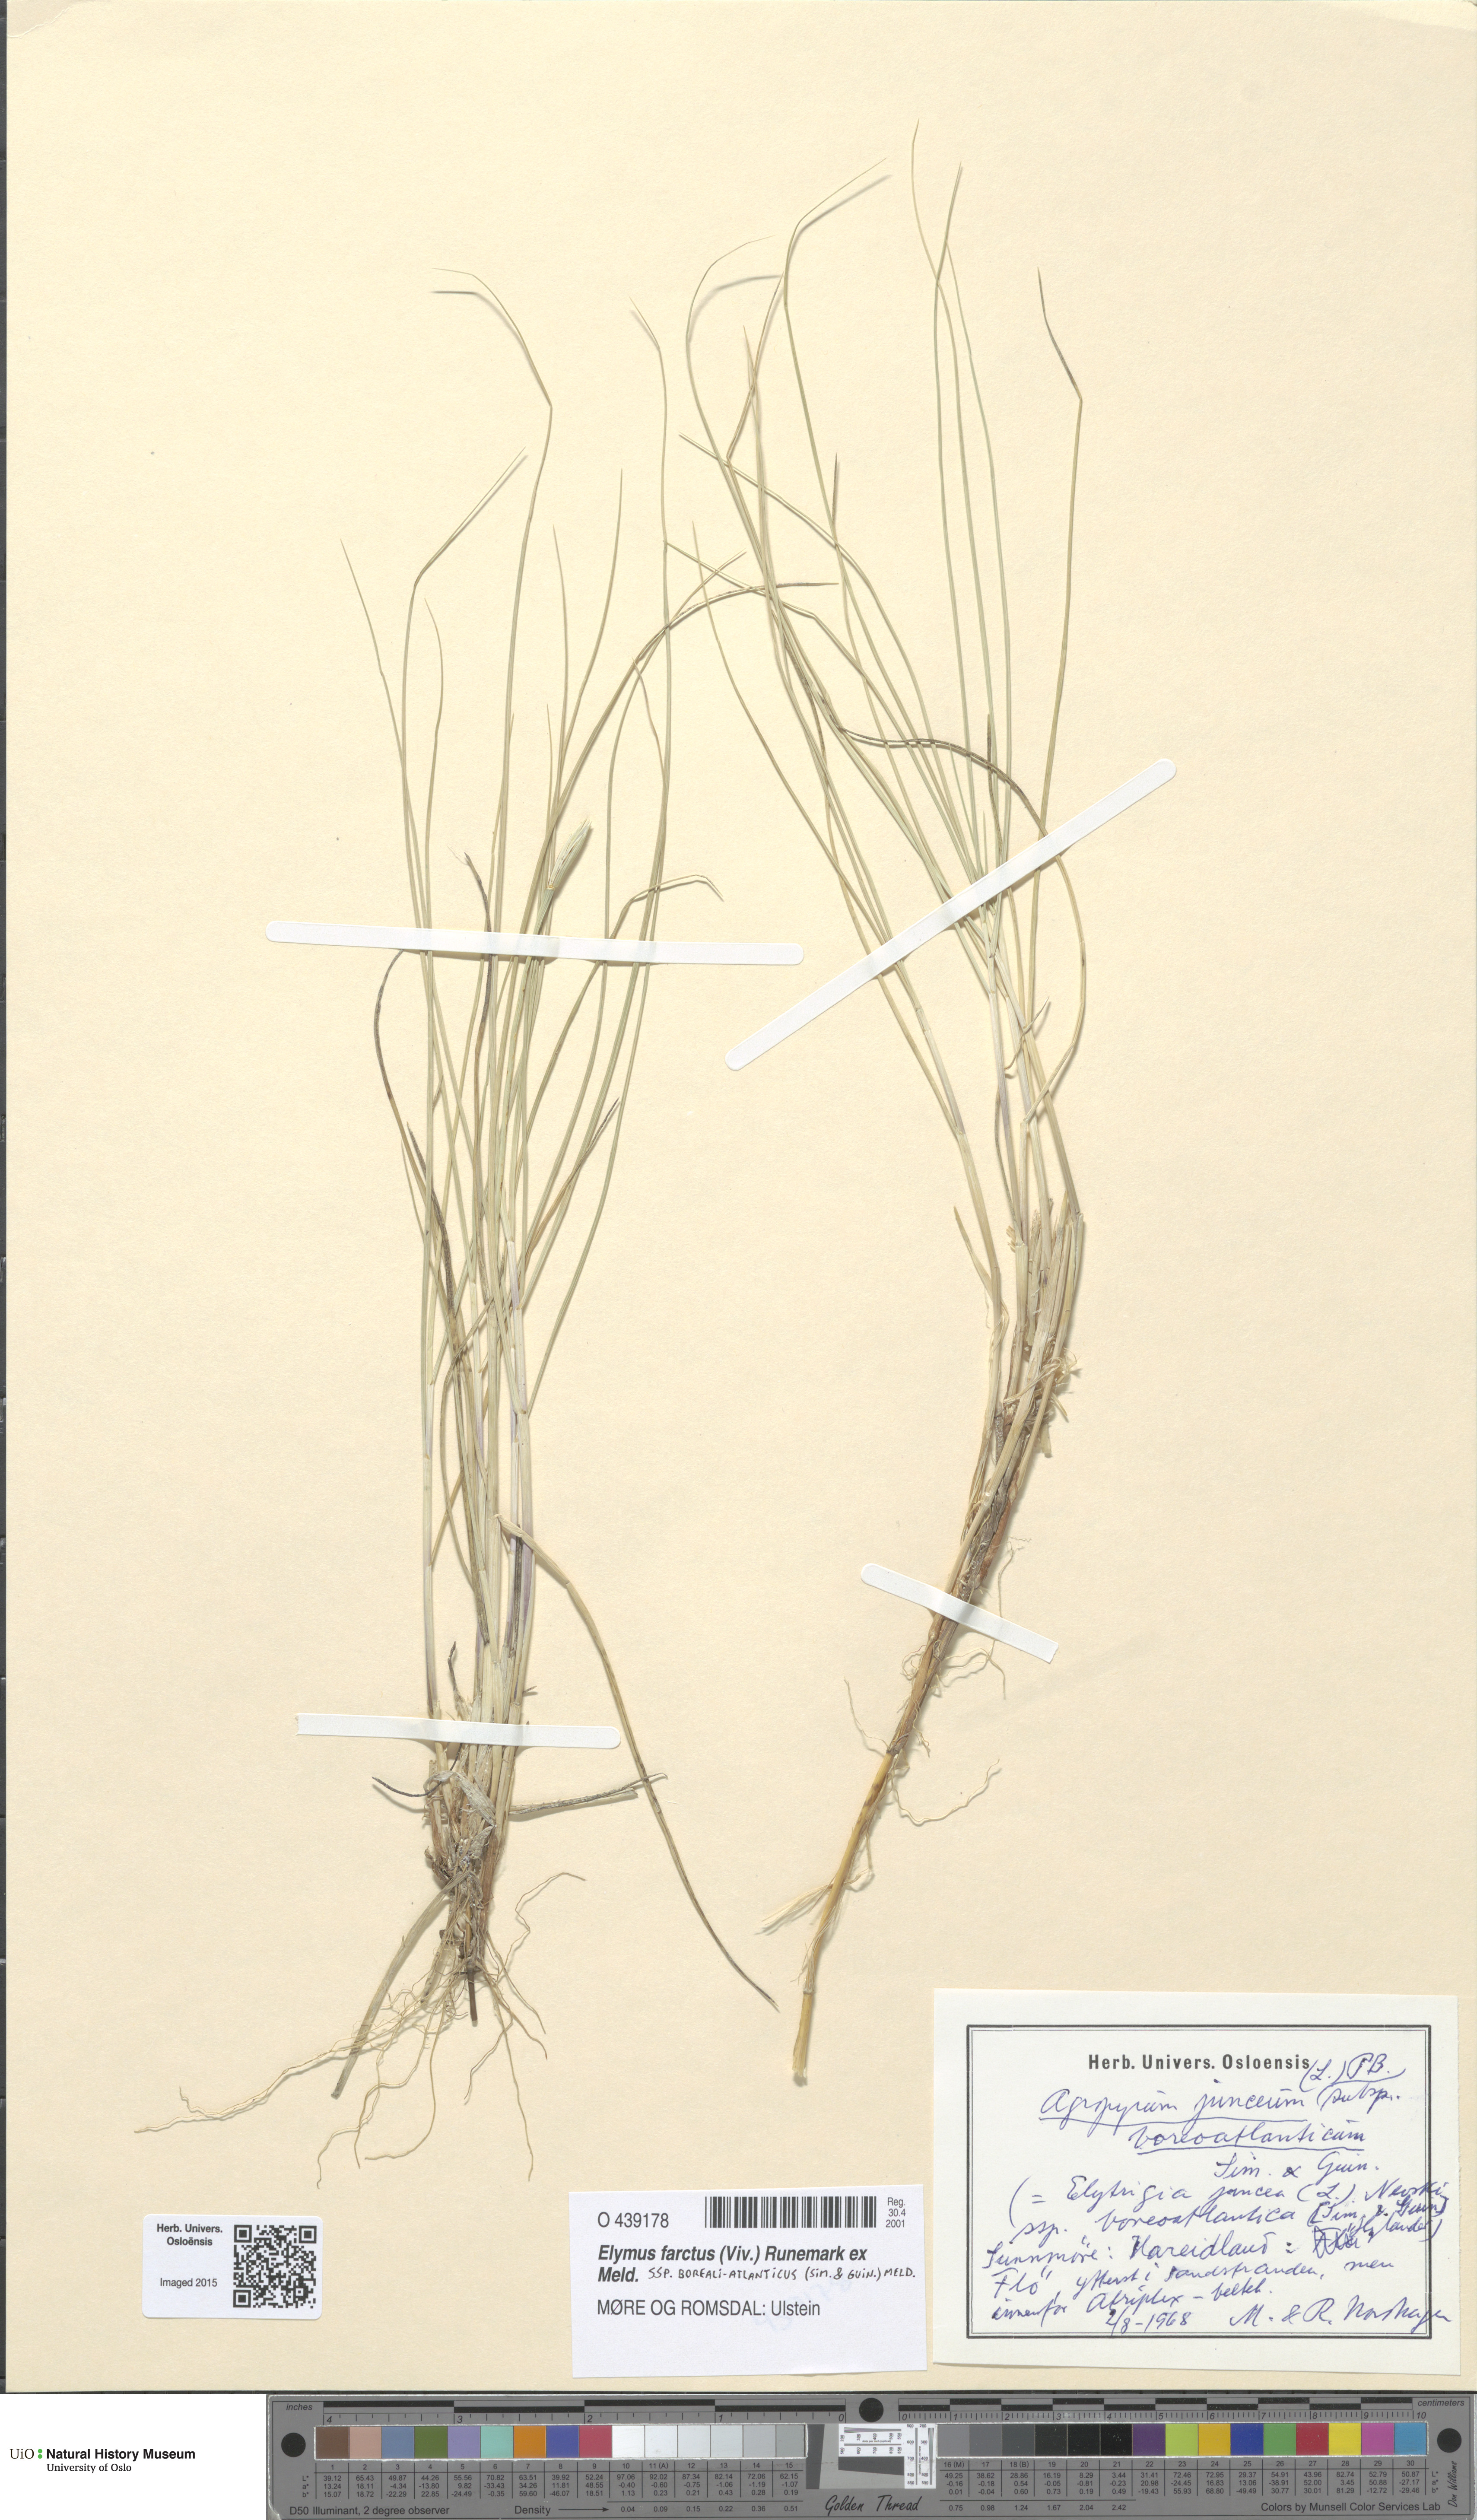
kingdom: Plantae
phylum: Tracheophyta
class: Liliopsida
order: Poales
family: Poaceae
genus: Thinopyrum
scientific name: Thinopyrum junceiforme
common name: Sea couch
